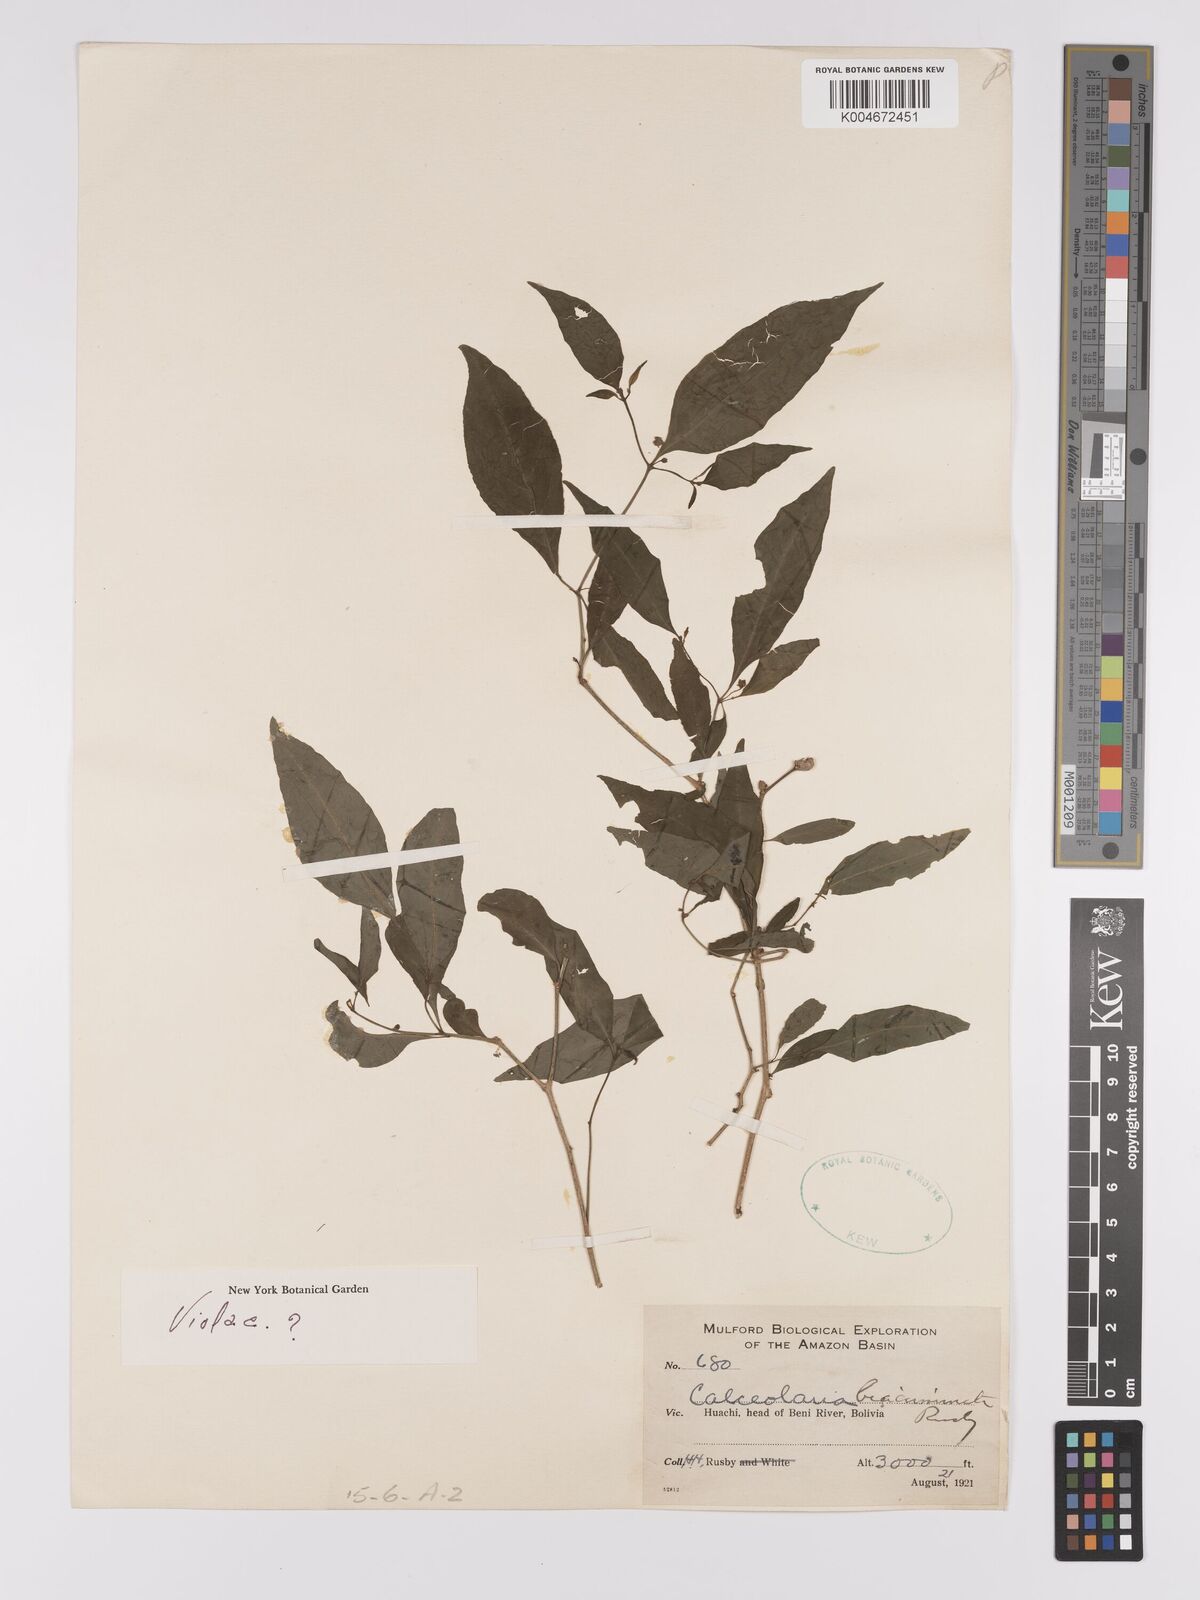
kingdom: Plantae
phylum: Tracheophyta
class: Magnoliopsida
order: Malpighiales
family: Violaceae
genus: Pombalia
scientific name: Pombalia sprucei
